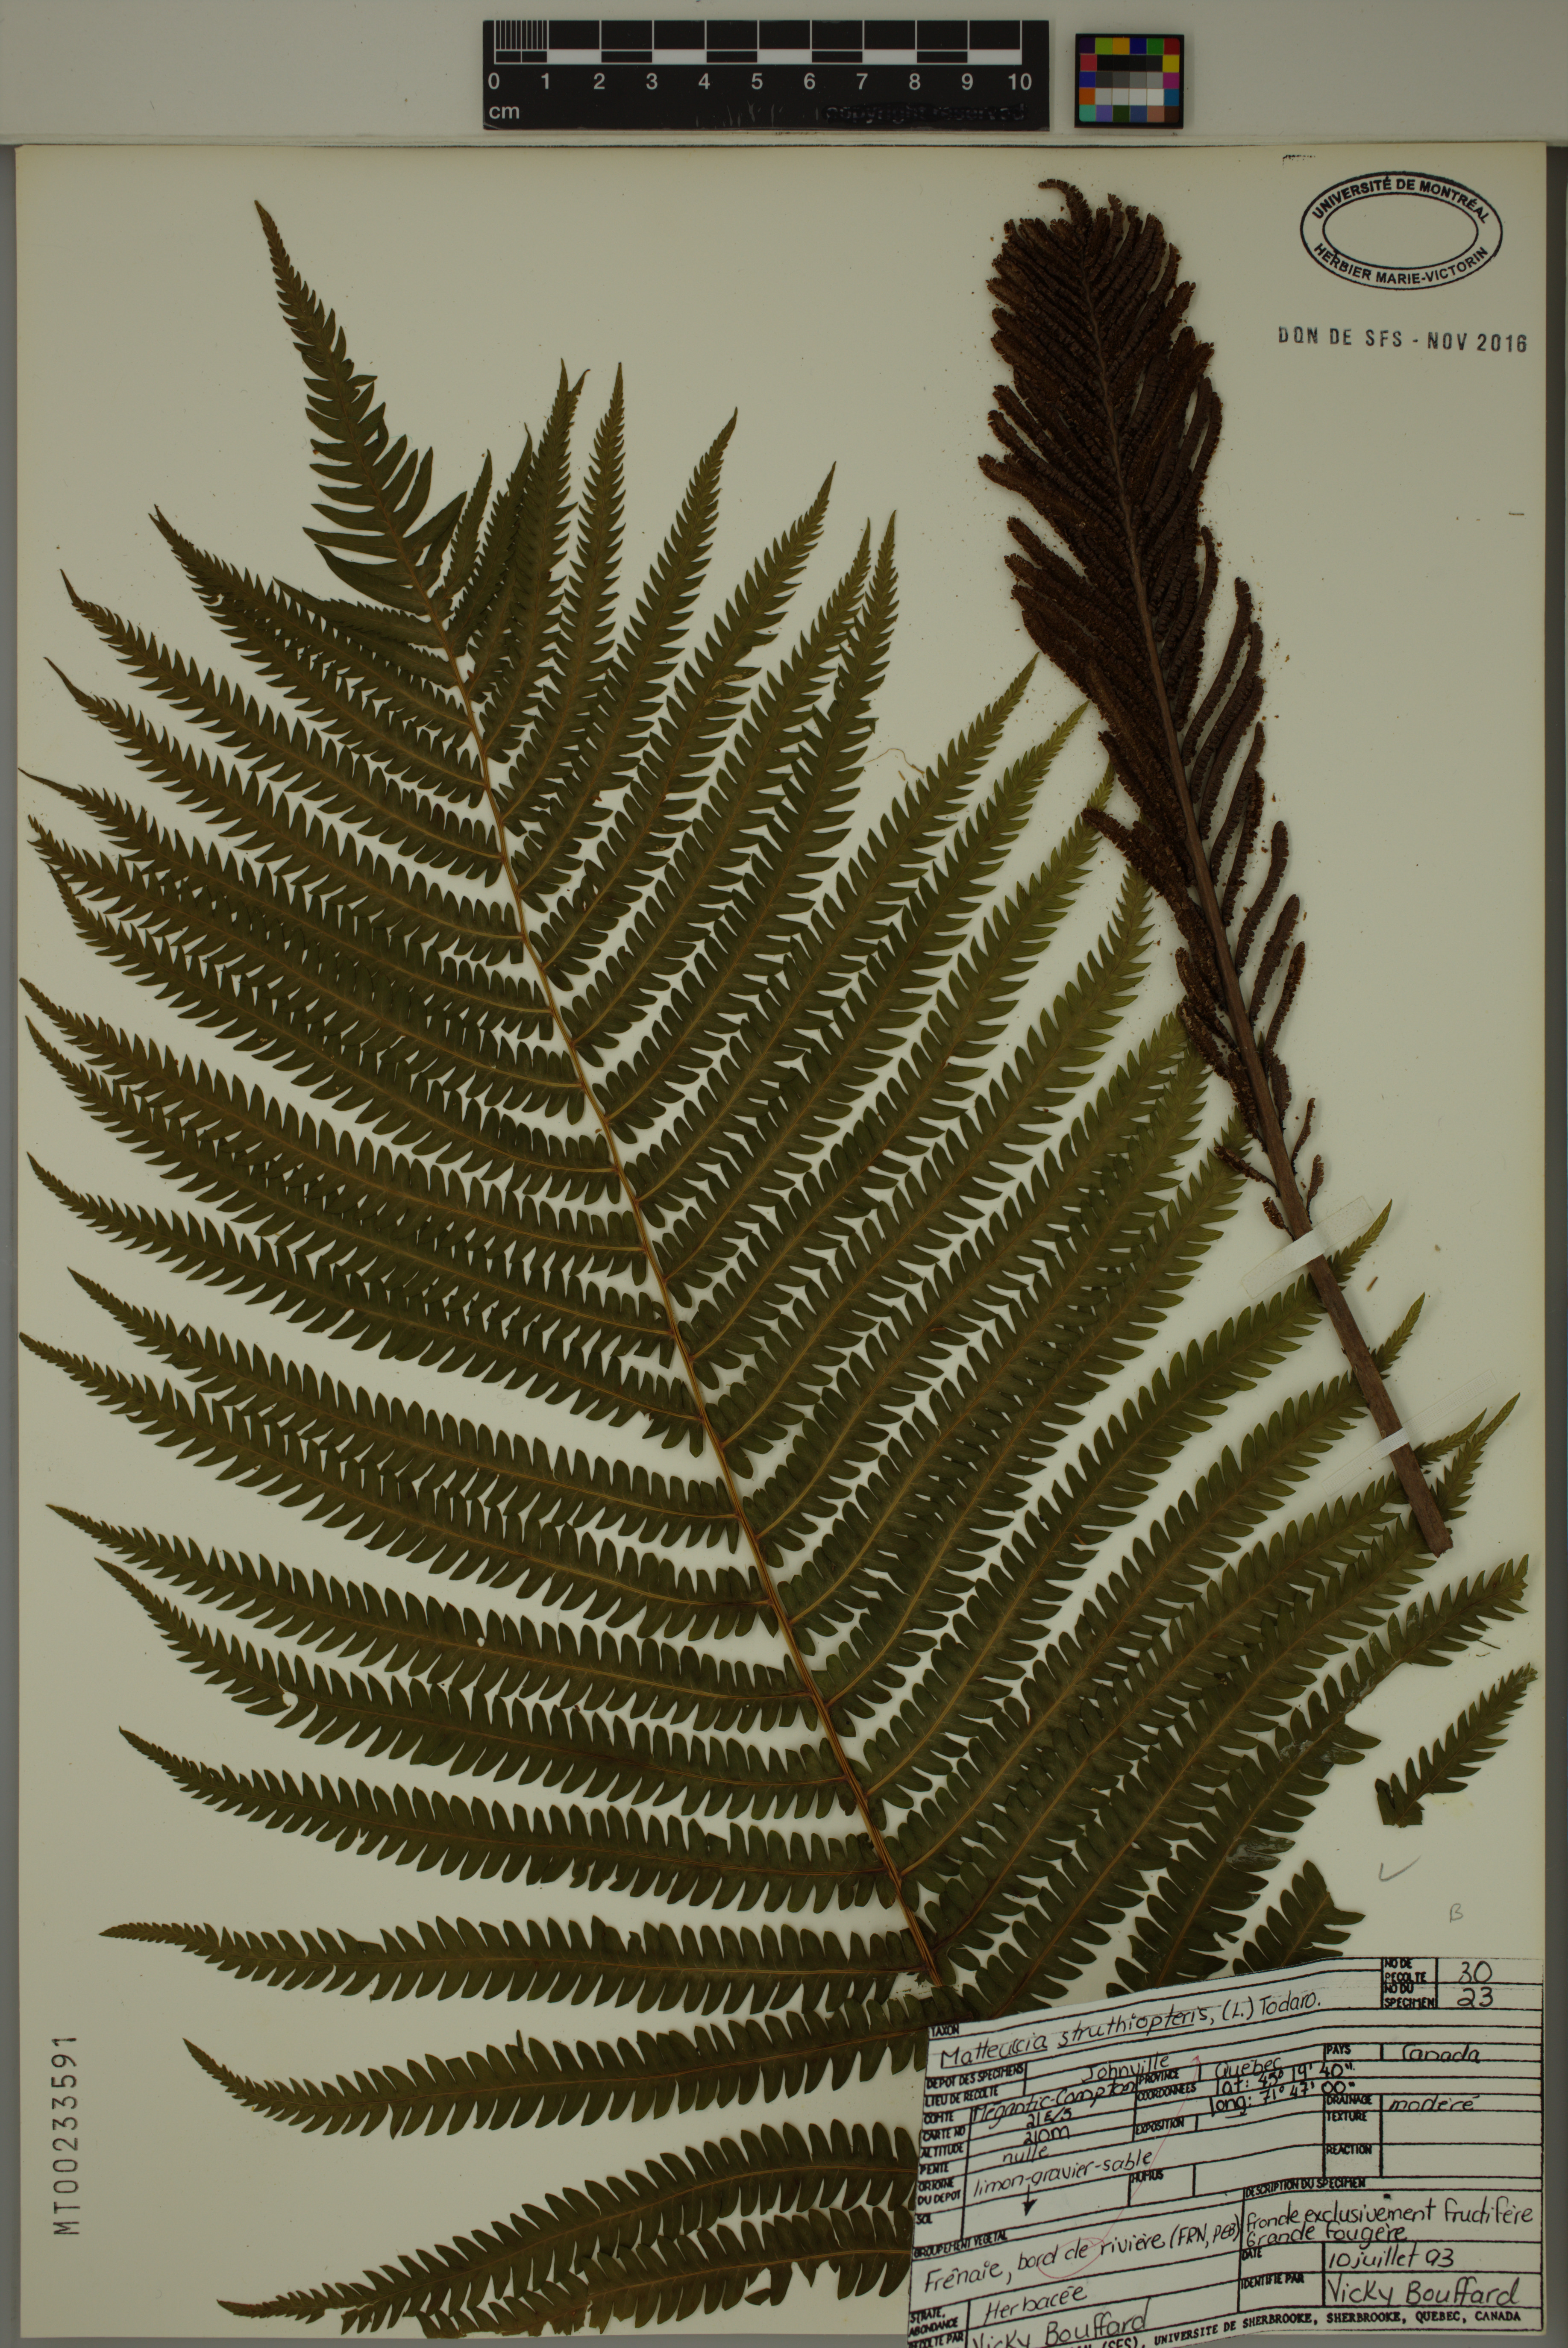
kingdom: Plantae
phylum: Tracheophyta
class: Polypodiopsida
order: Polypodiales
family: Onocleaceae
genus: Matteuccia
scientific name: Matteuccia struthiopteris
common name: Ostrich fern
